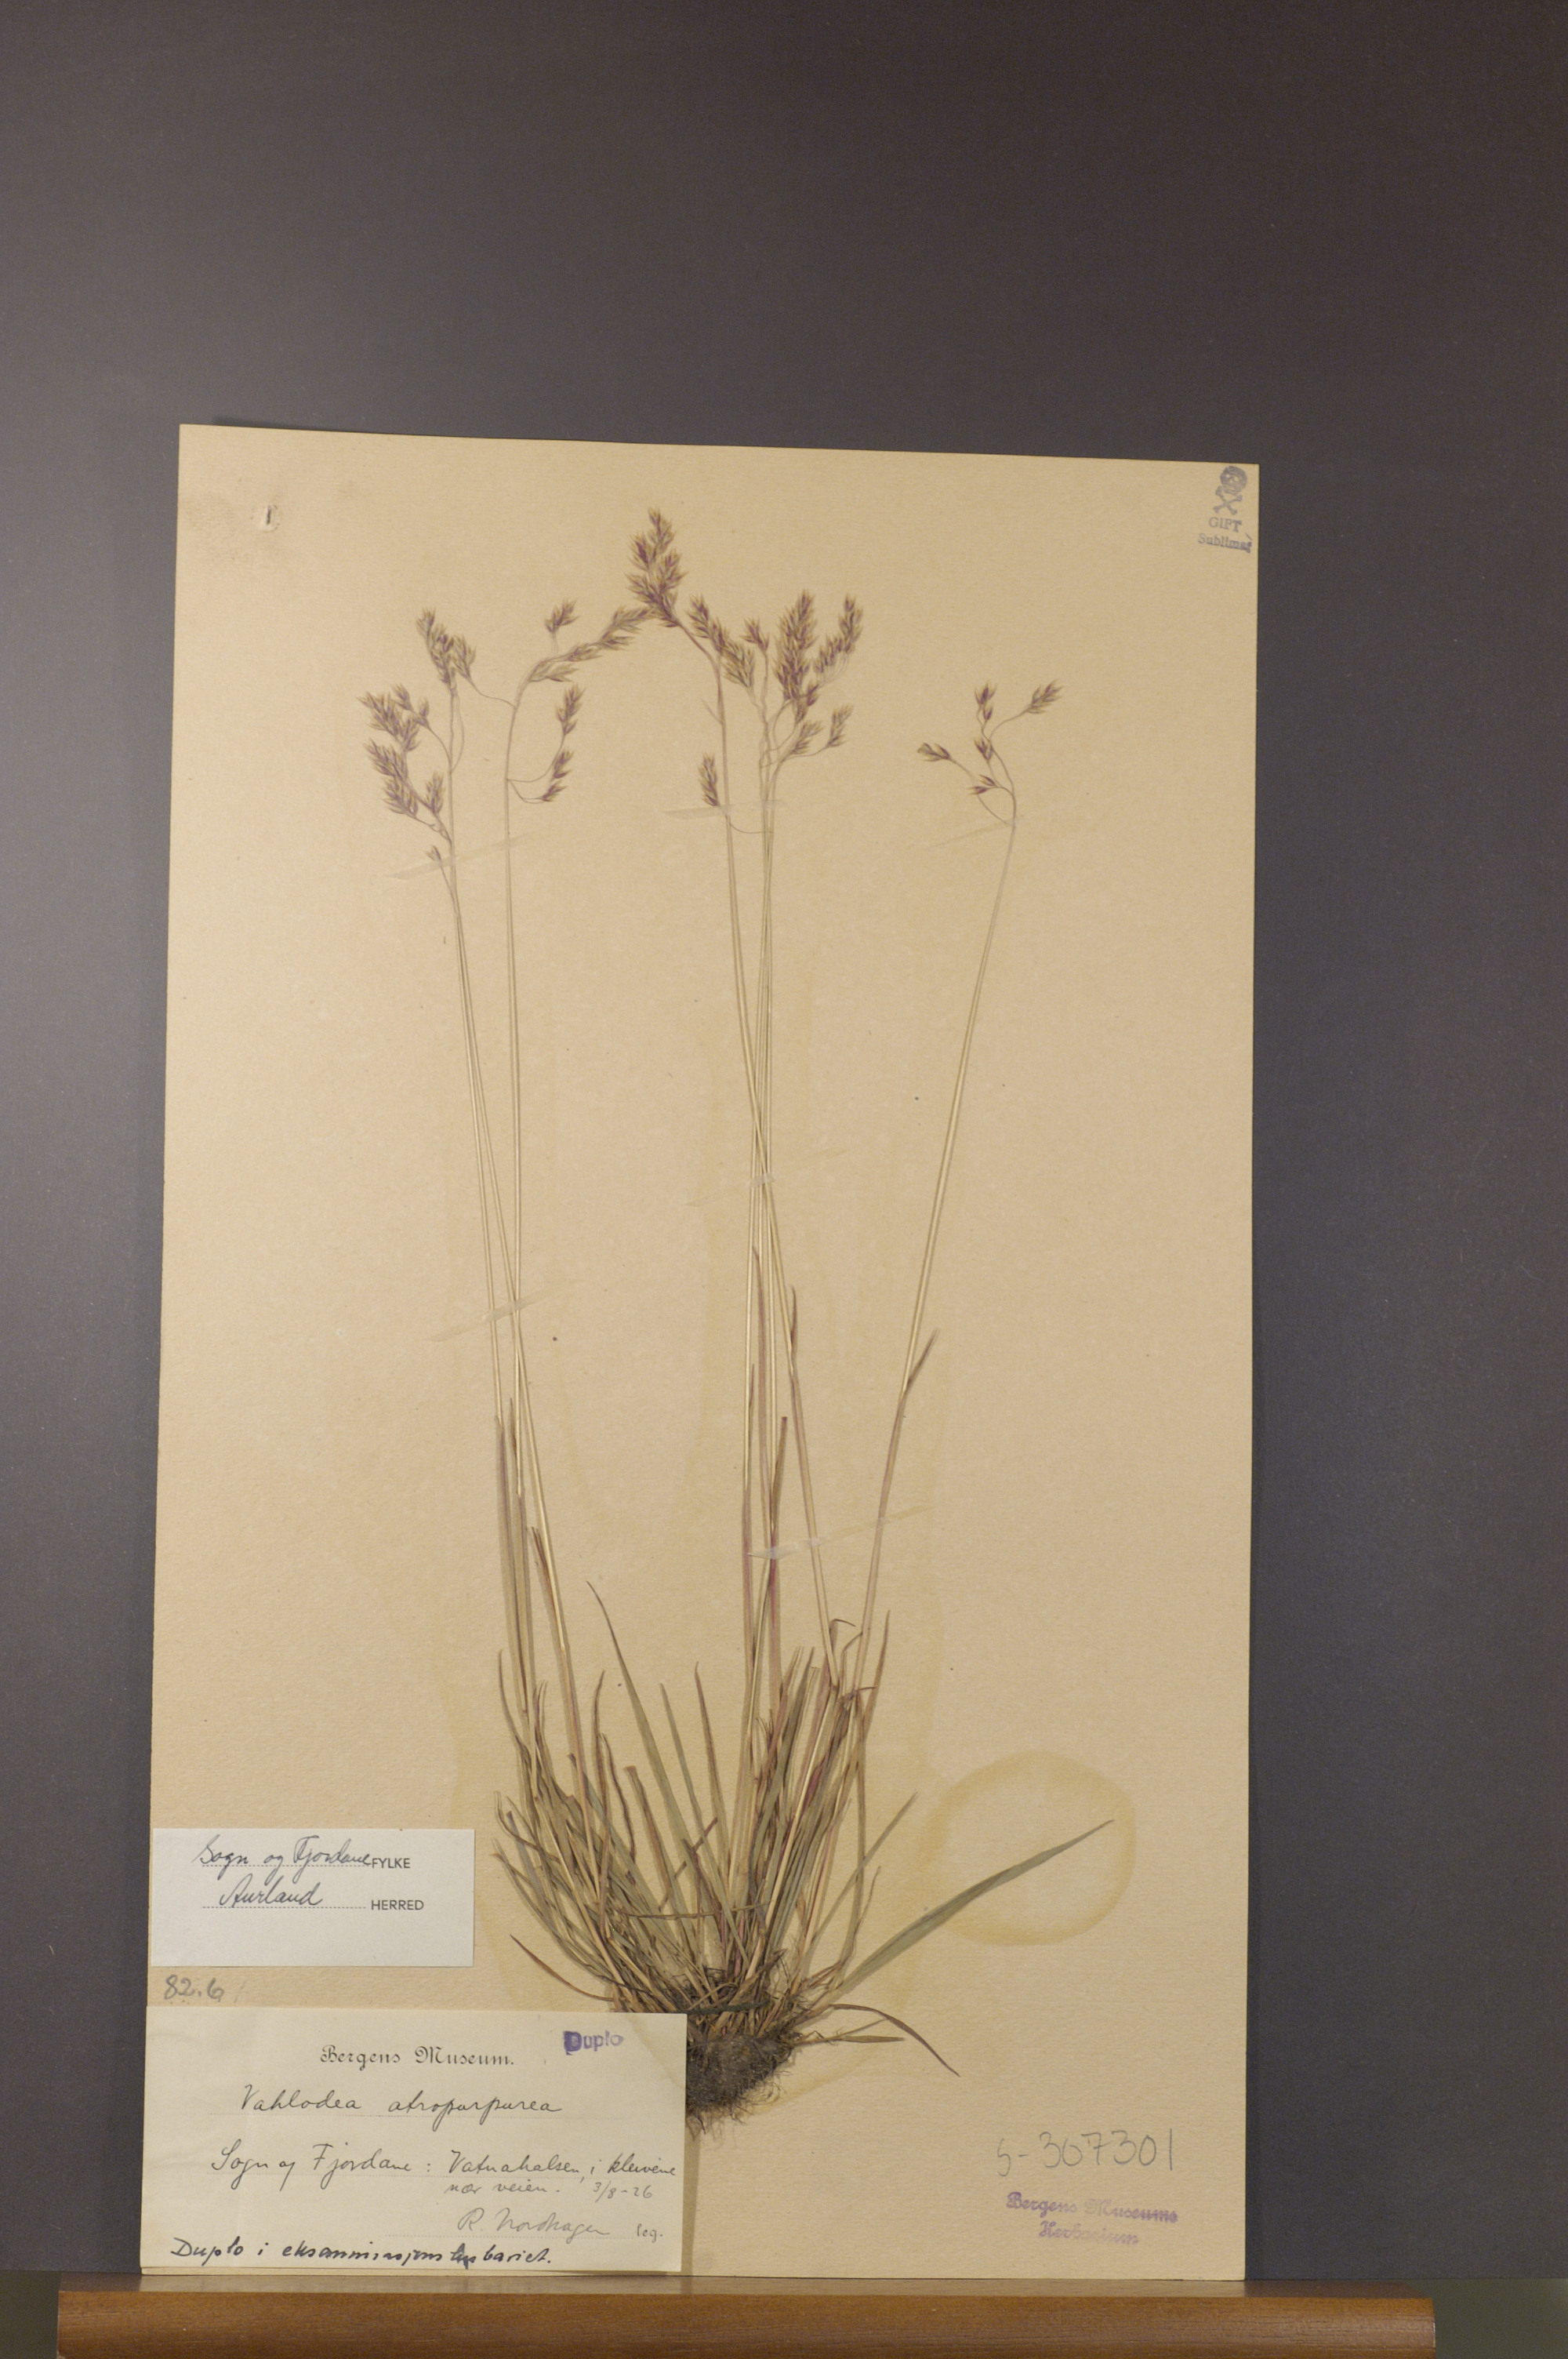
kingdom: Plantae
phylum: Tracheophyta
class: Liliopsida
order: Poales
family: Poaceae
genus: Vahlodea
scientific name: Vahlodea atropurpurea
